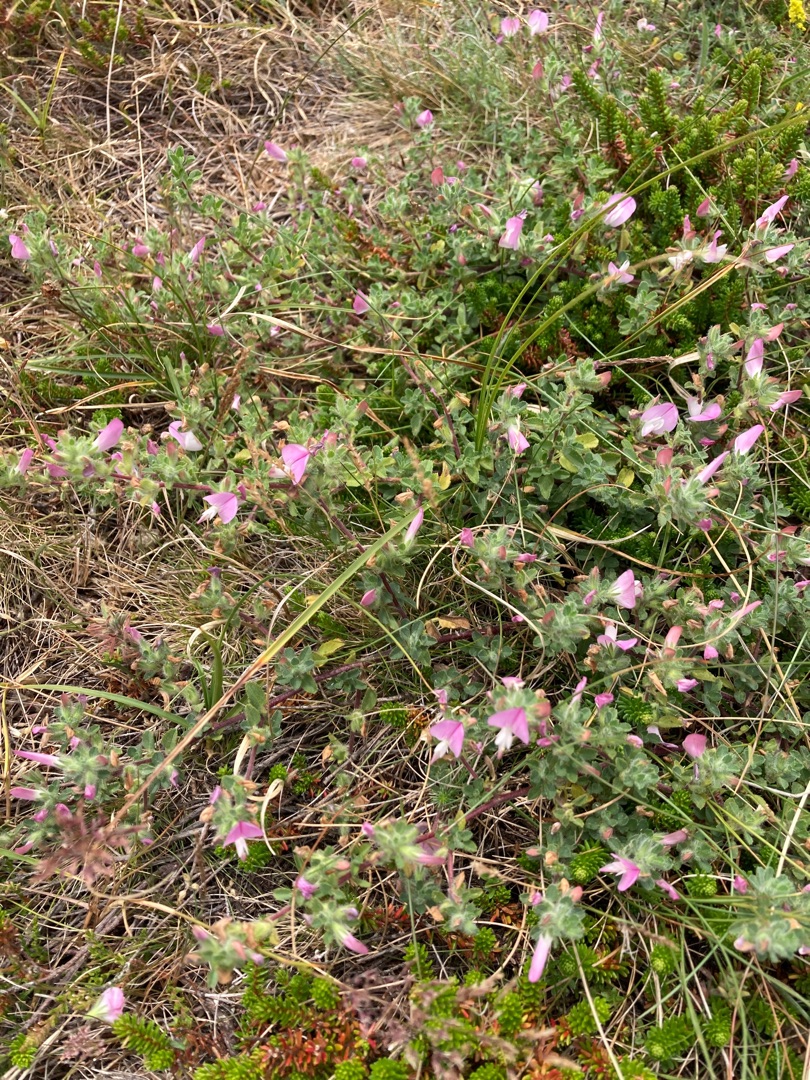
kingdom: Plantae
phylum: Tracheophyta
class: Magnoliopsida
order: Fabales
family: Fabaceae
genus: Ononis
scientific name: Ononis spinosa
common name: Mark-krageklo
